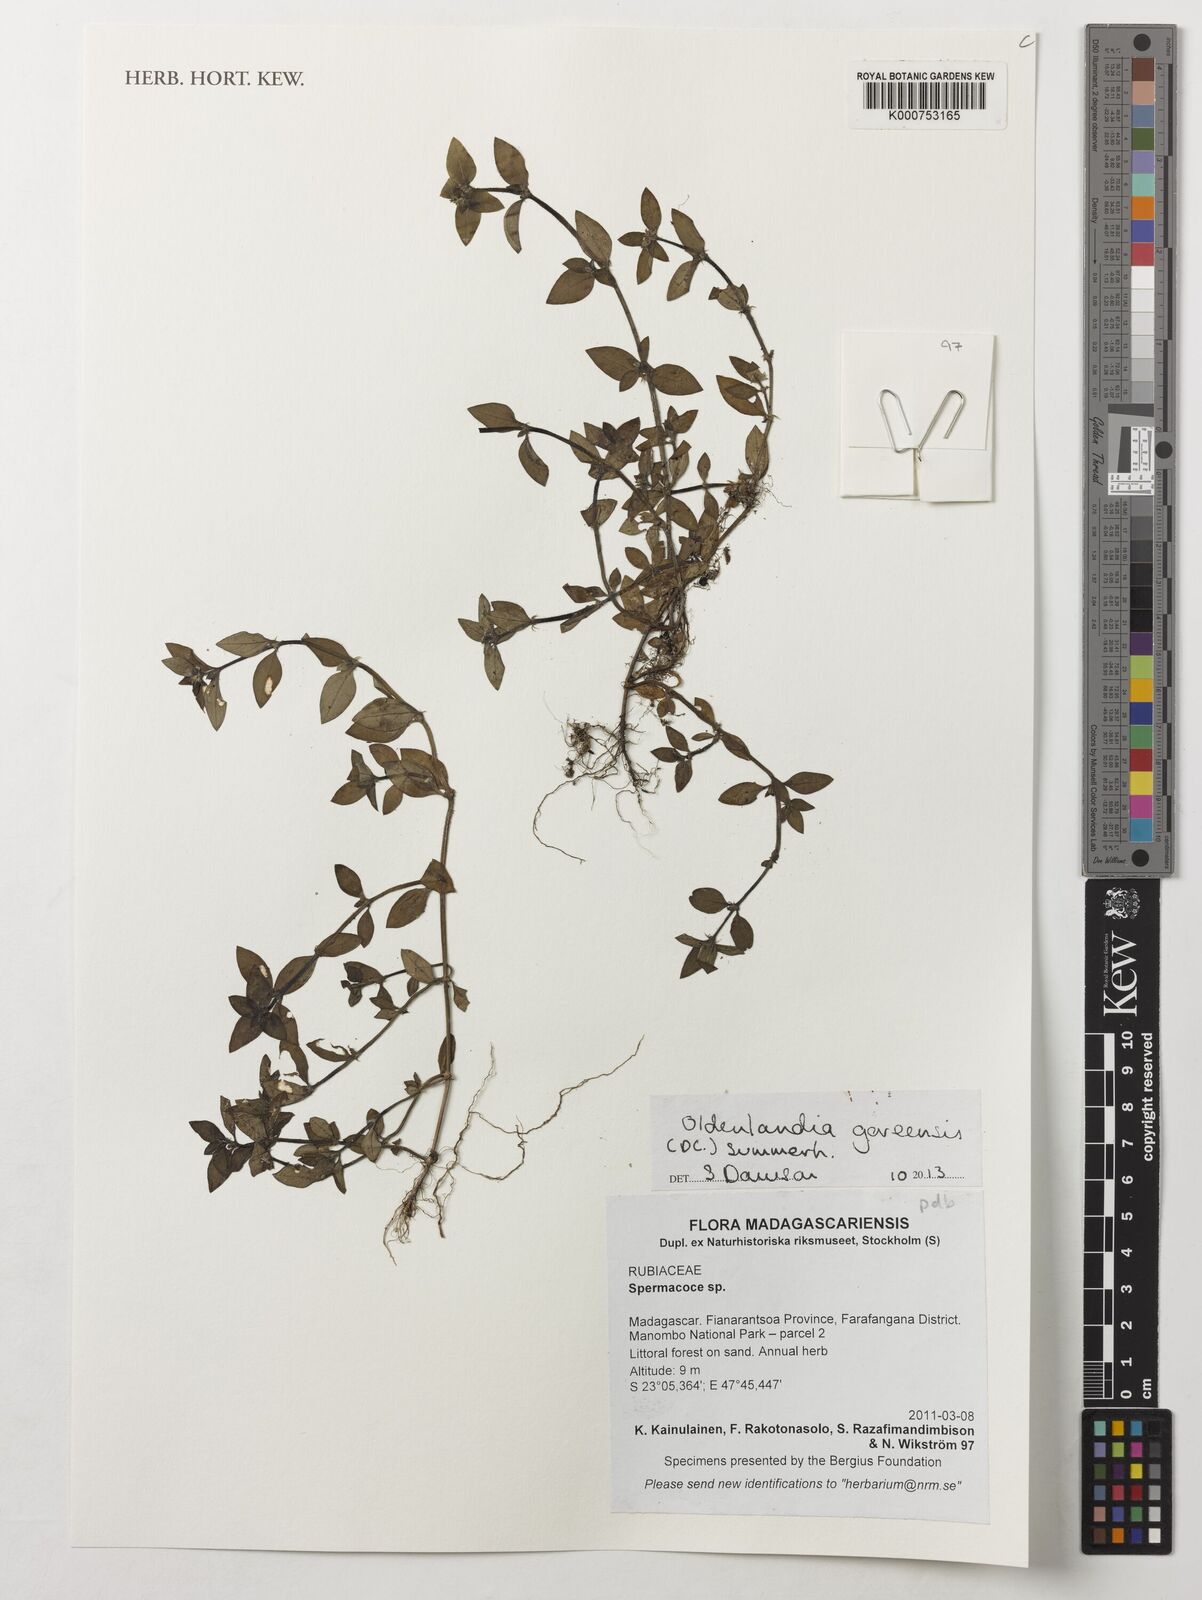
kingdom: Plantae
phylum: Tracheophyta
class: Magnoliopsida
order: Gentianales
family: Rubiaceae
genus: Edrastima
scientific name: Edrastima goreensis
